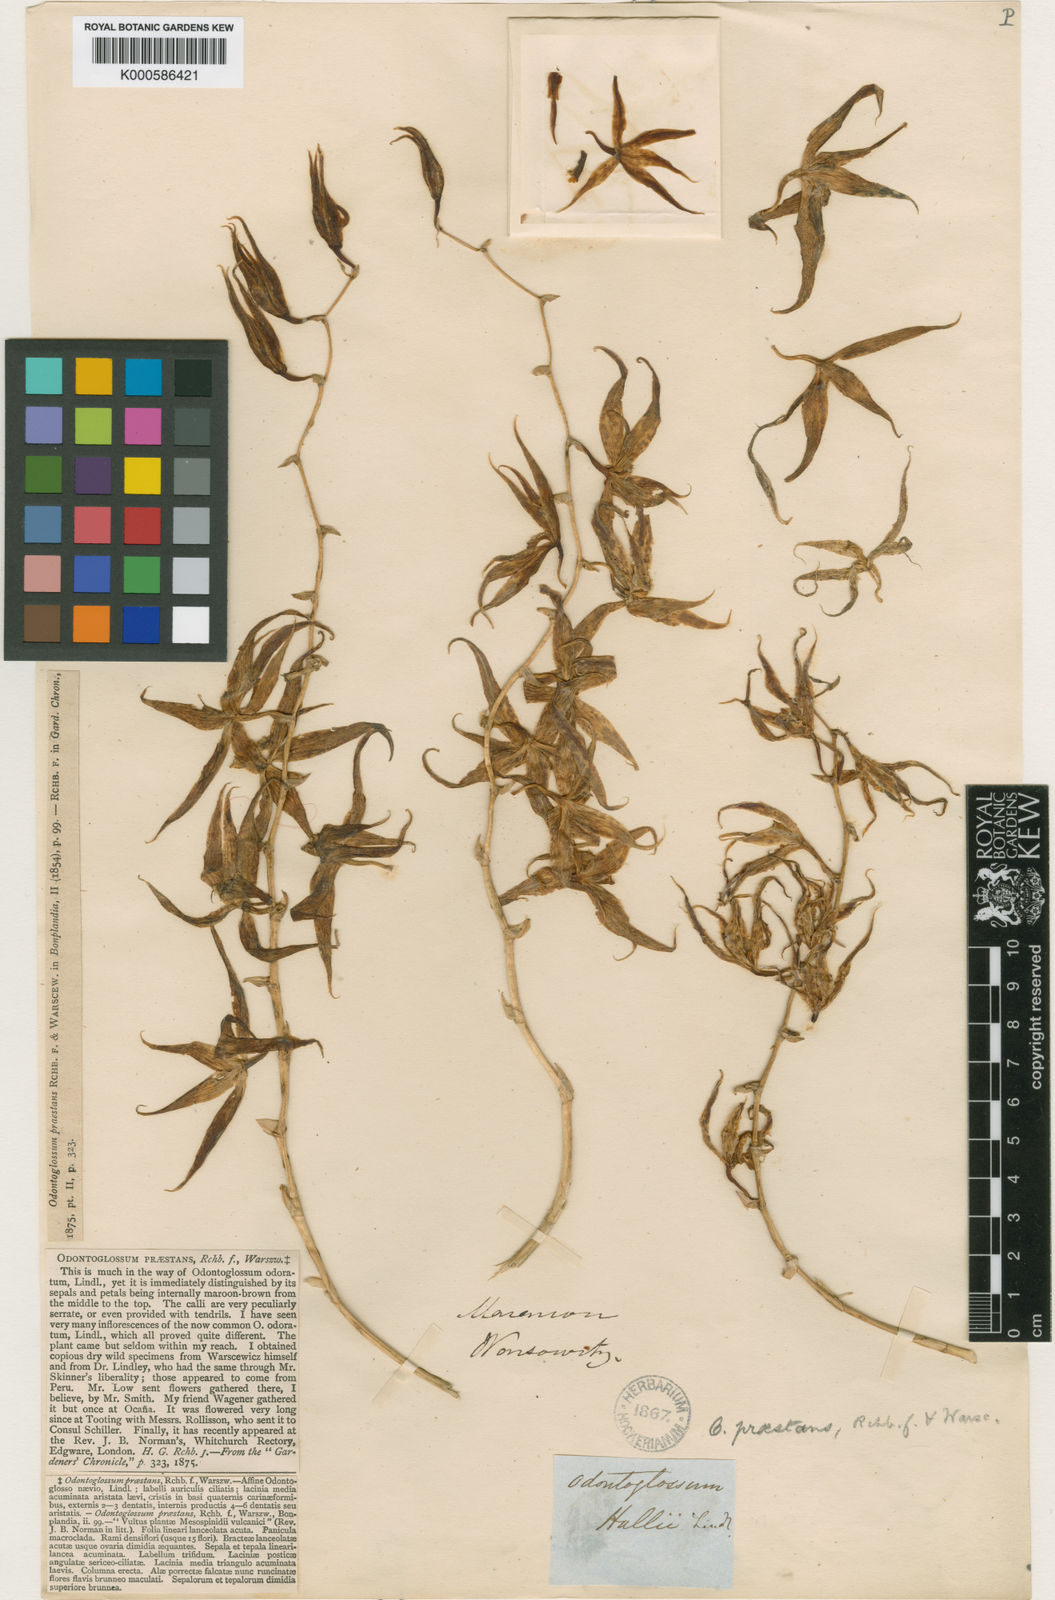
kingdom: Plantae
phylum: Tracheophyta
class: Liliopsida
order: Asparagales
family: Orchidaceae
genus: Oncidium
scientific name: Oncidium praestanoides
